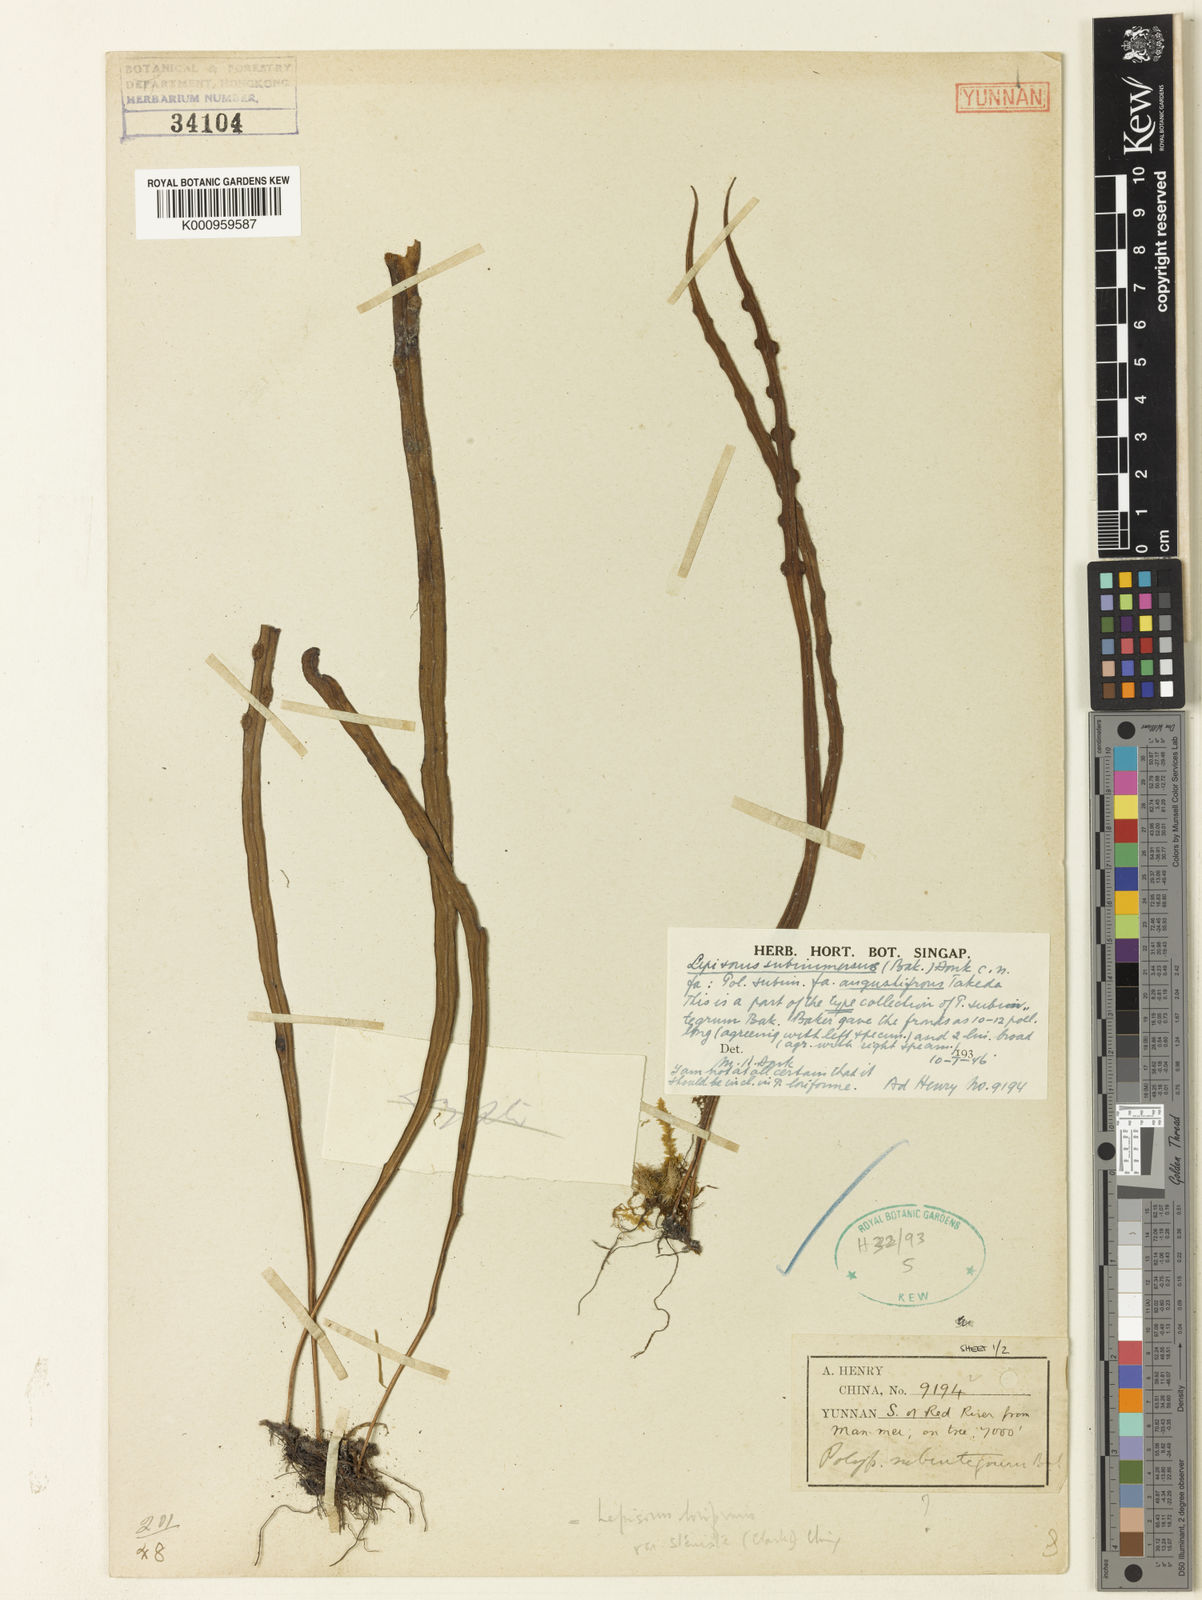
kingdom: Plantae
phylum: Tracheophyta
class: Polypodiopsida
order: Polypodiales
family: Polypodiaceae
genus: Lepisorus
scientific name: Lepisorus loriformis
